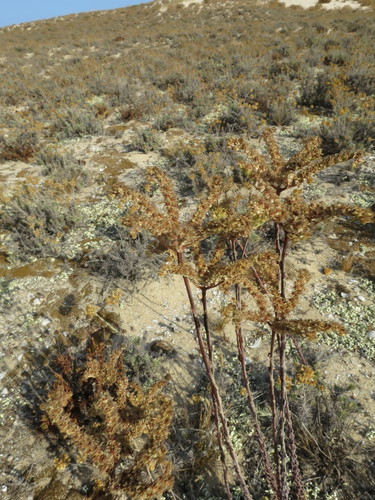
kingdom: Plantae
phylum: Tracheophyta
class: Magnoliopsida
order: Saxifragales
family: Crassulaceae
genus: Petrosedum
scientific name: Petrosedum sediforme
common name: Pale stonecrop
